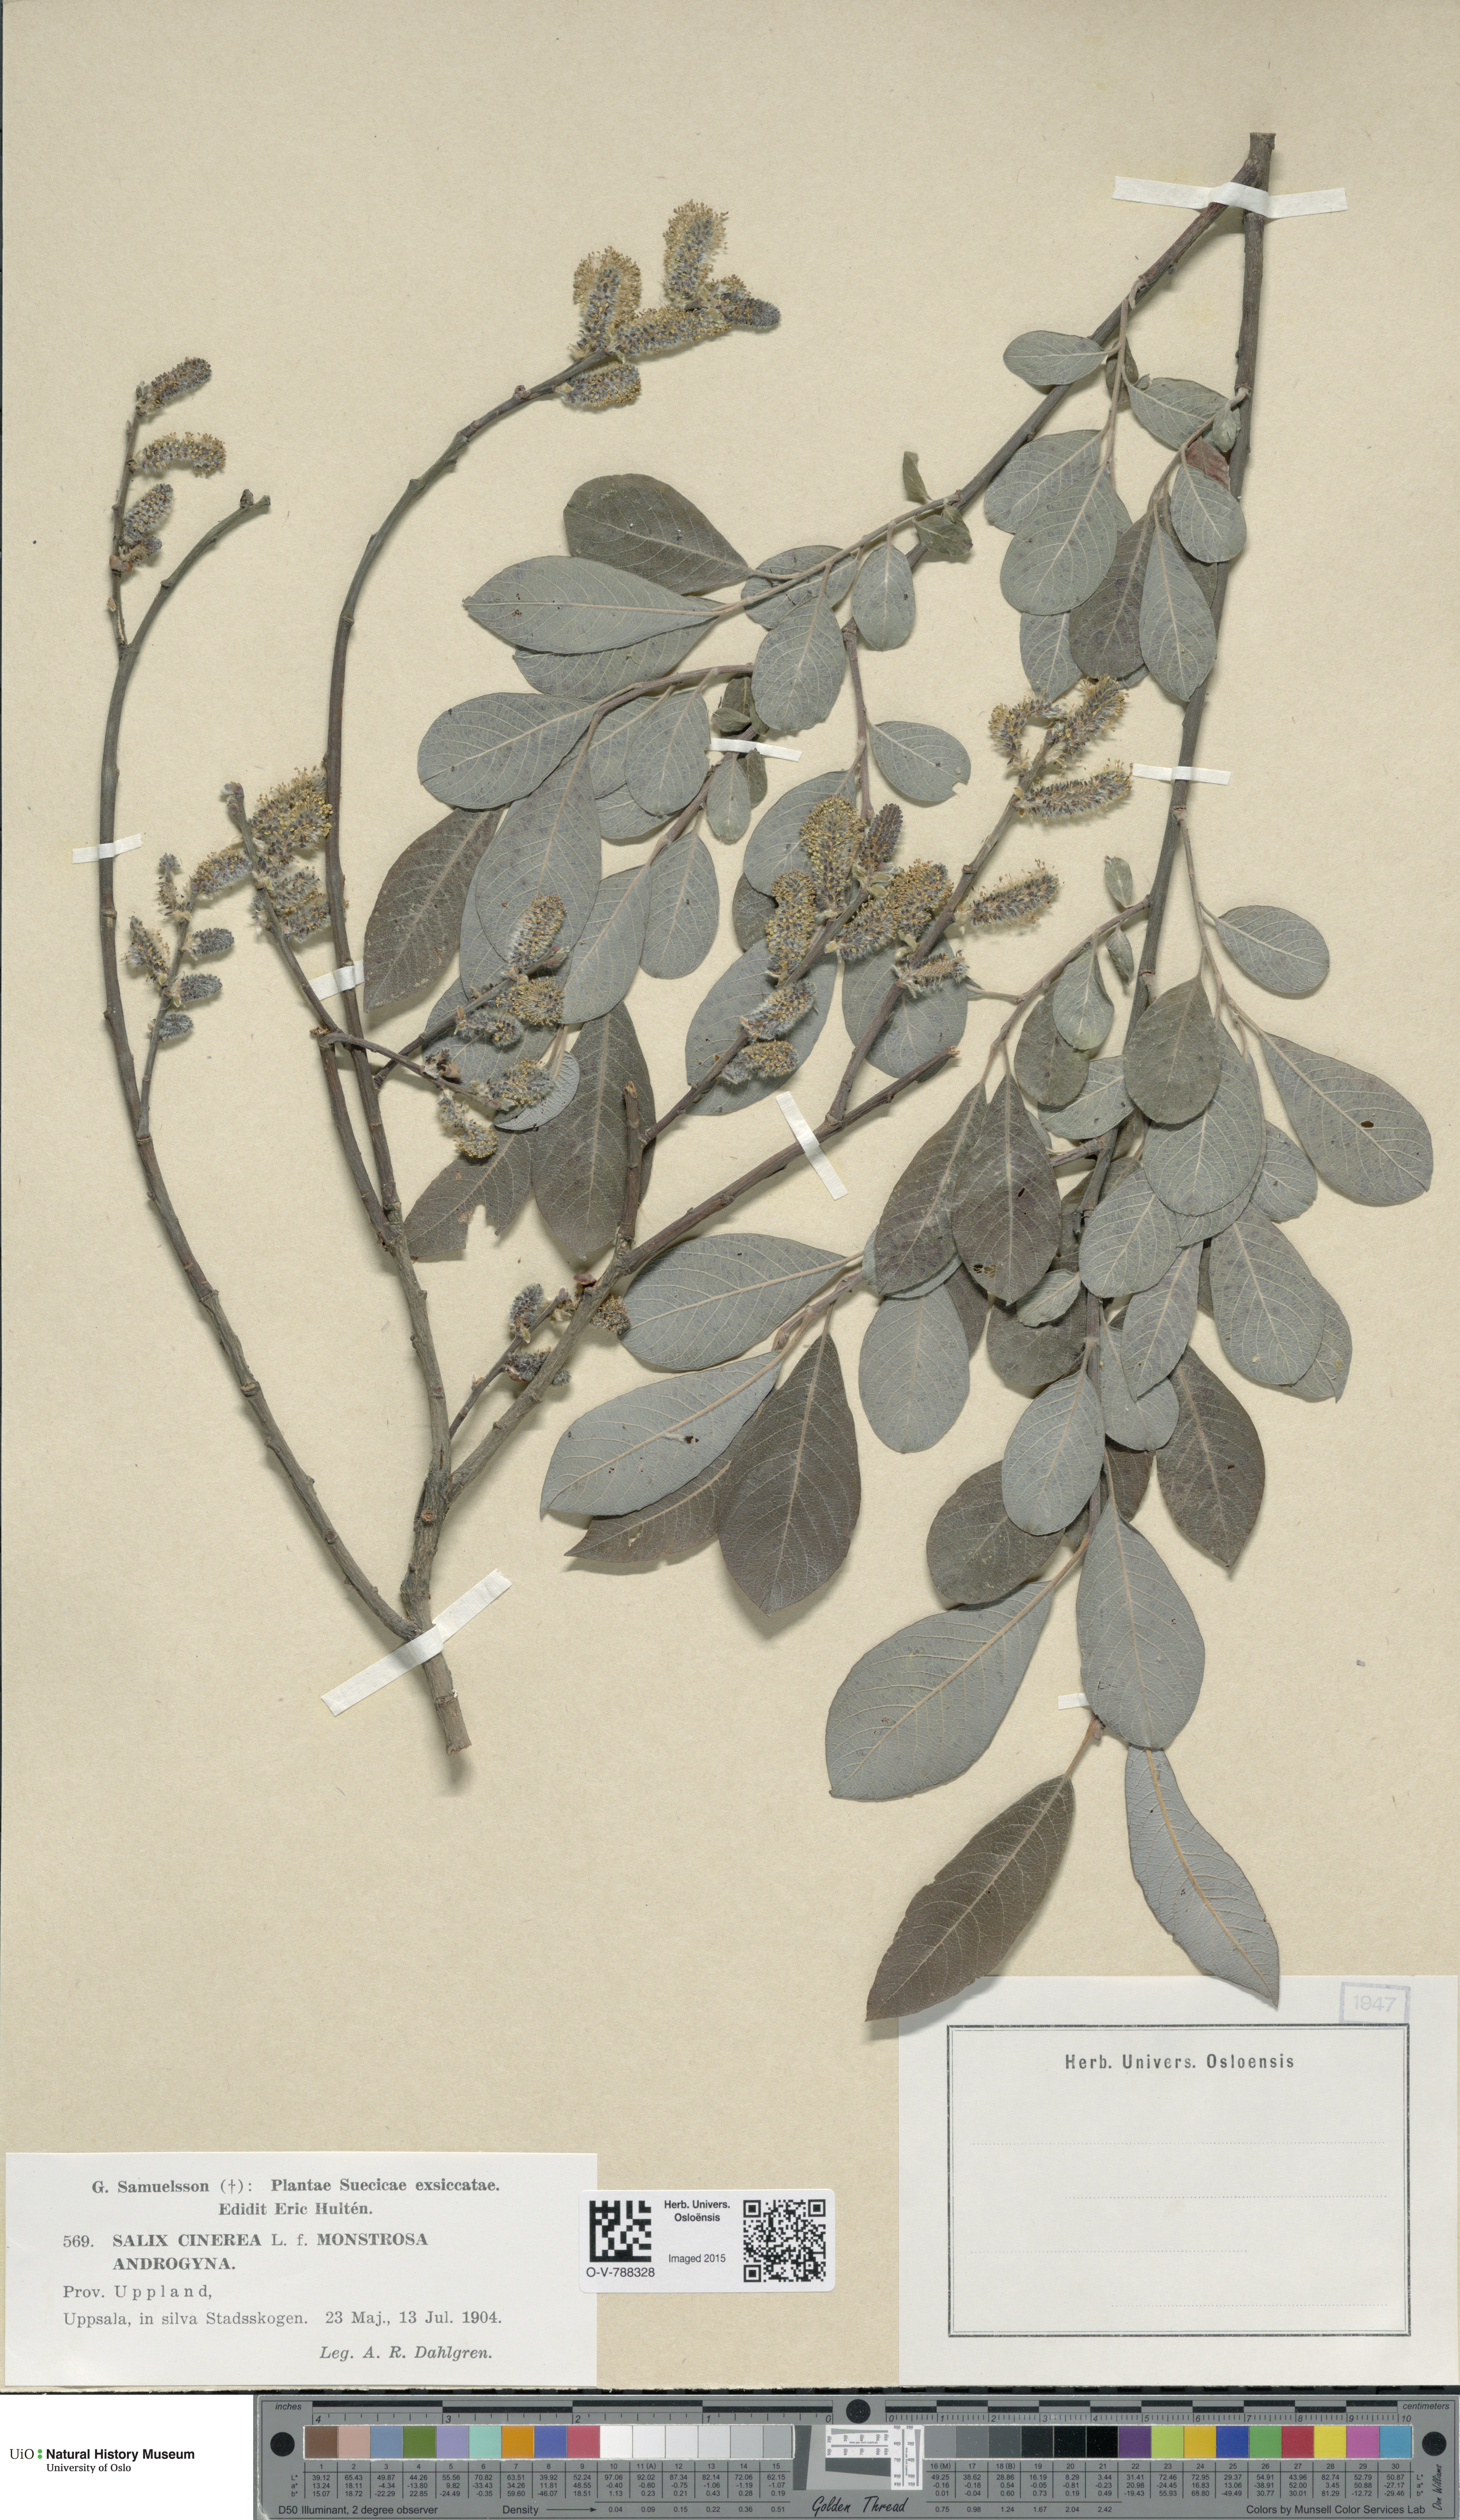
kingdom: Plantae
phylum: Tracheophyta
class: Magnoliopsida
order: Malpighiales
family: Salicaceae
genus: Salix
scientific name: Salix cinerea
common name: Common sallow
